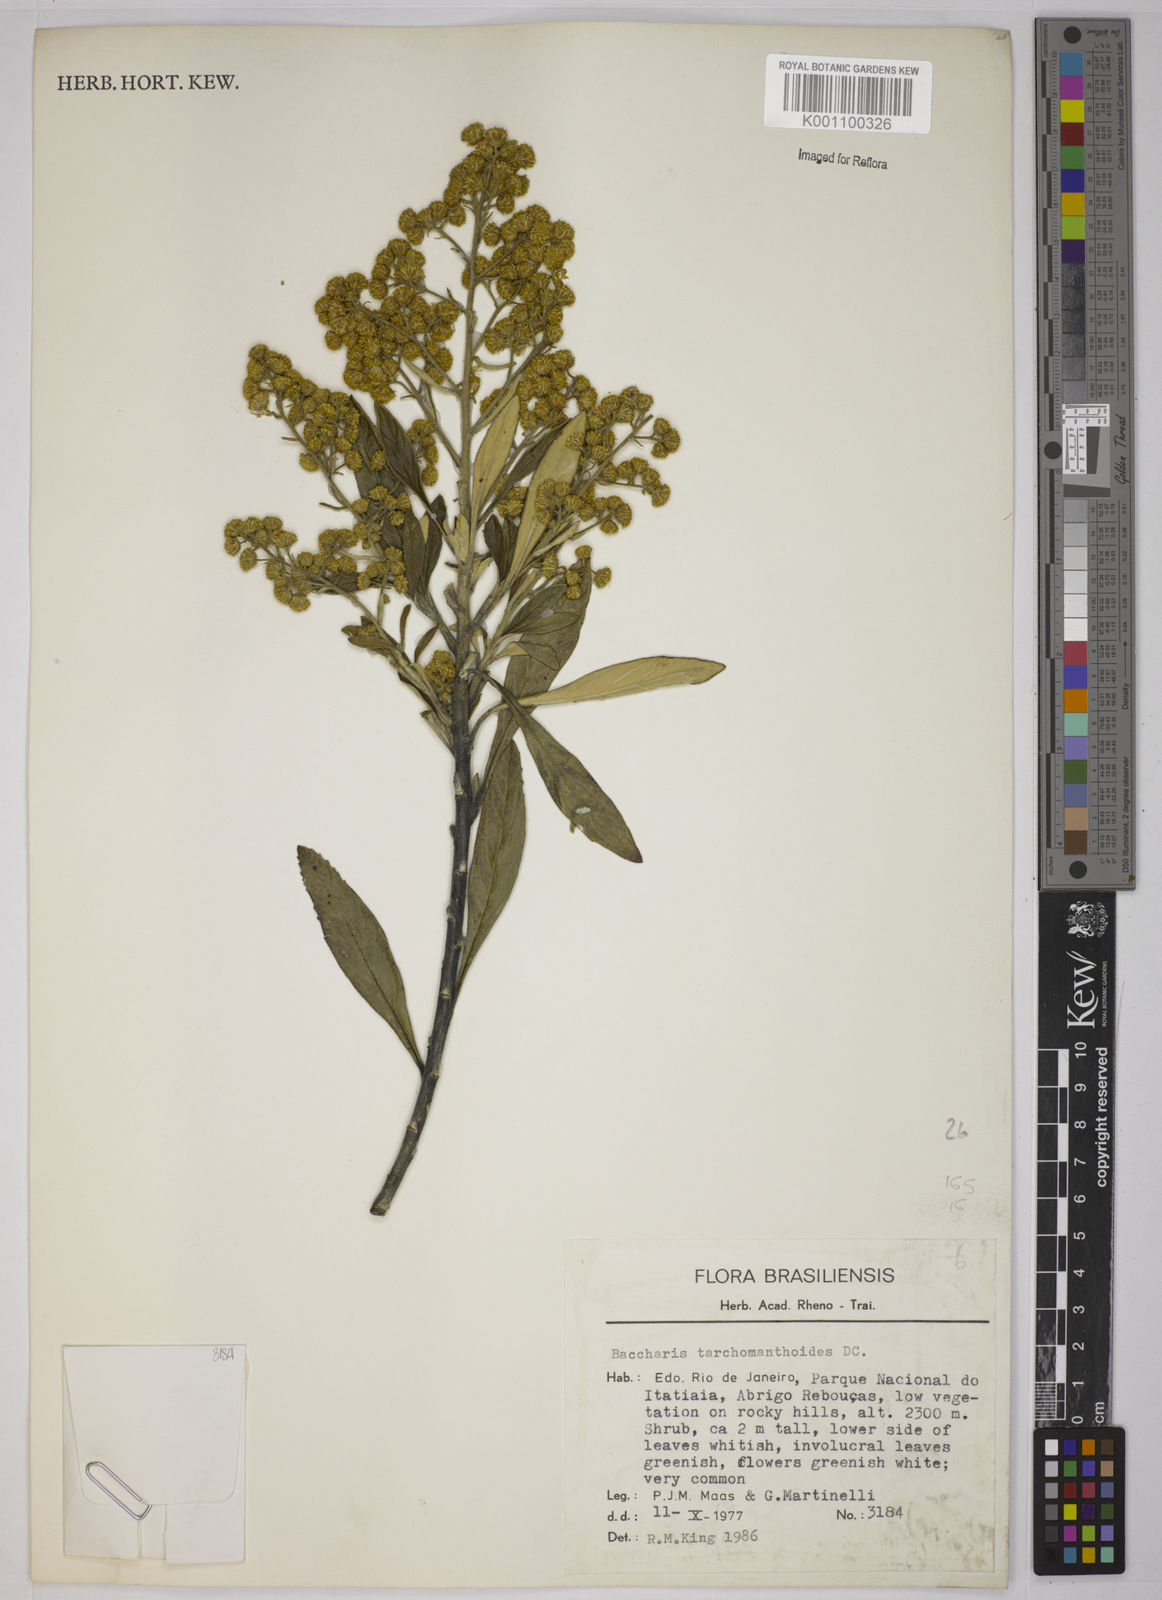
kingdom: Plantae
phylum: Tracheophyta
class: Magnoliopsida
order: Asterales
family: Asteraceae
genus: Baccharis
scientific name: Baccharis
